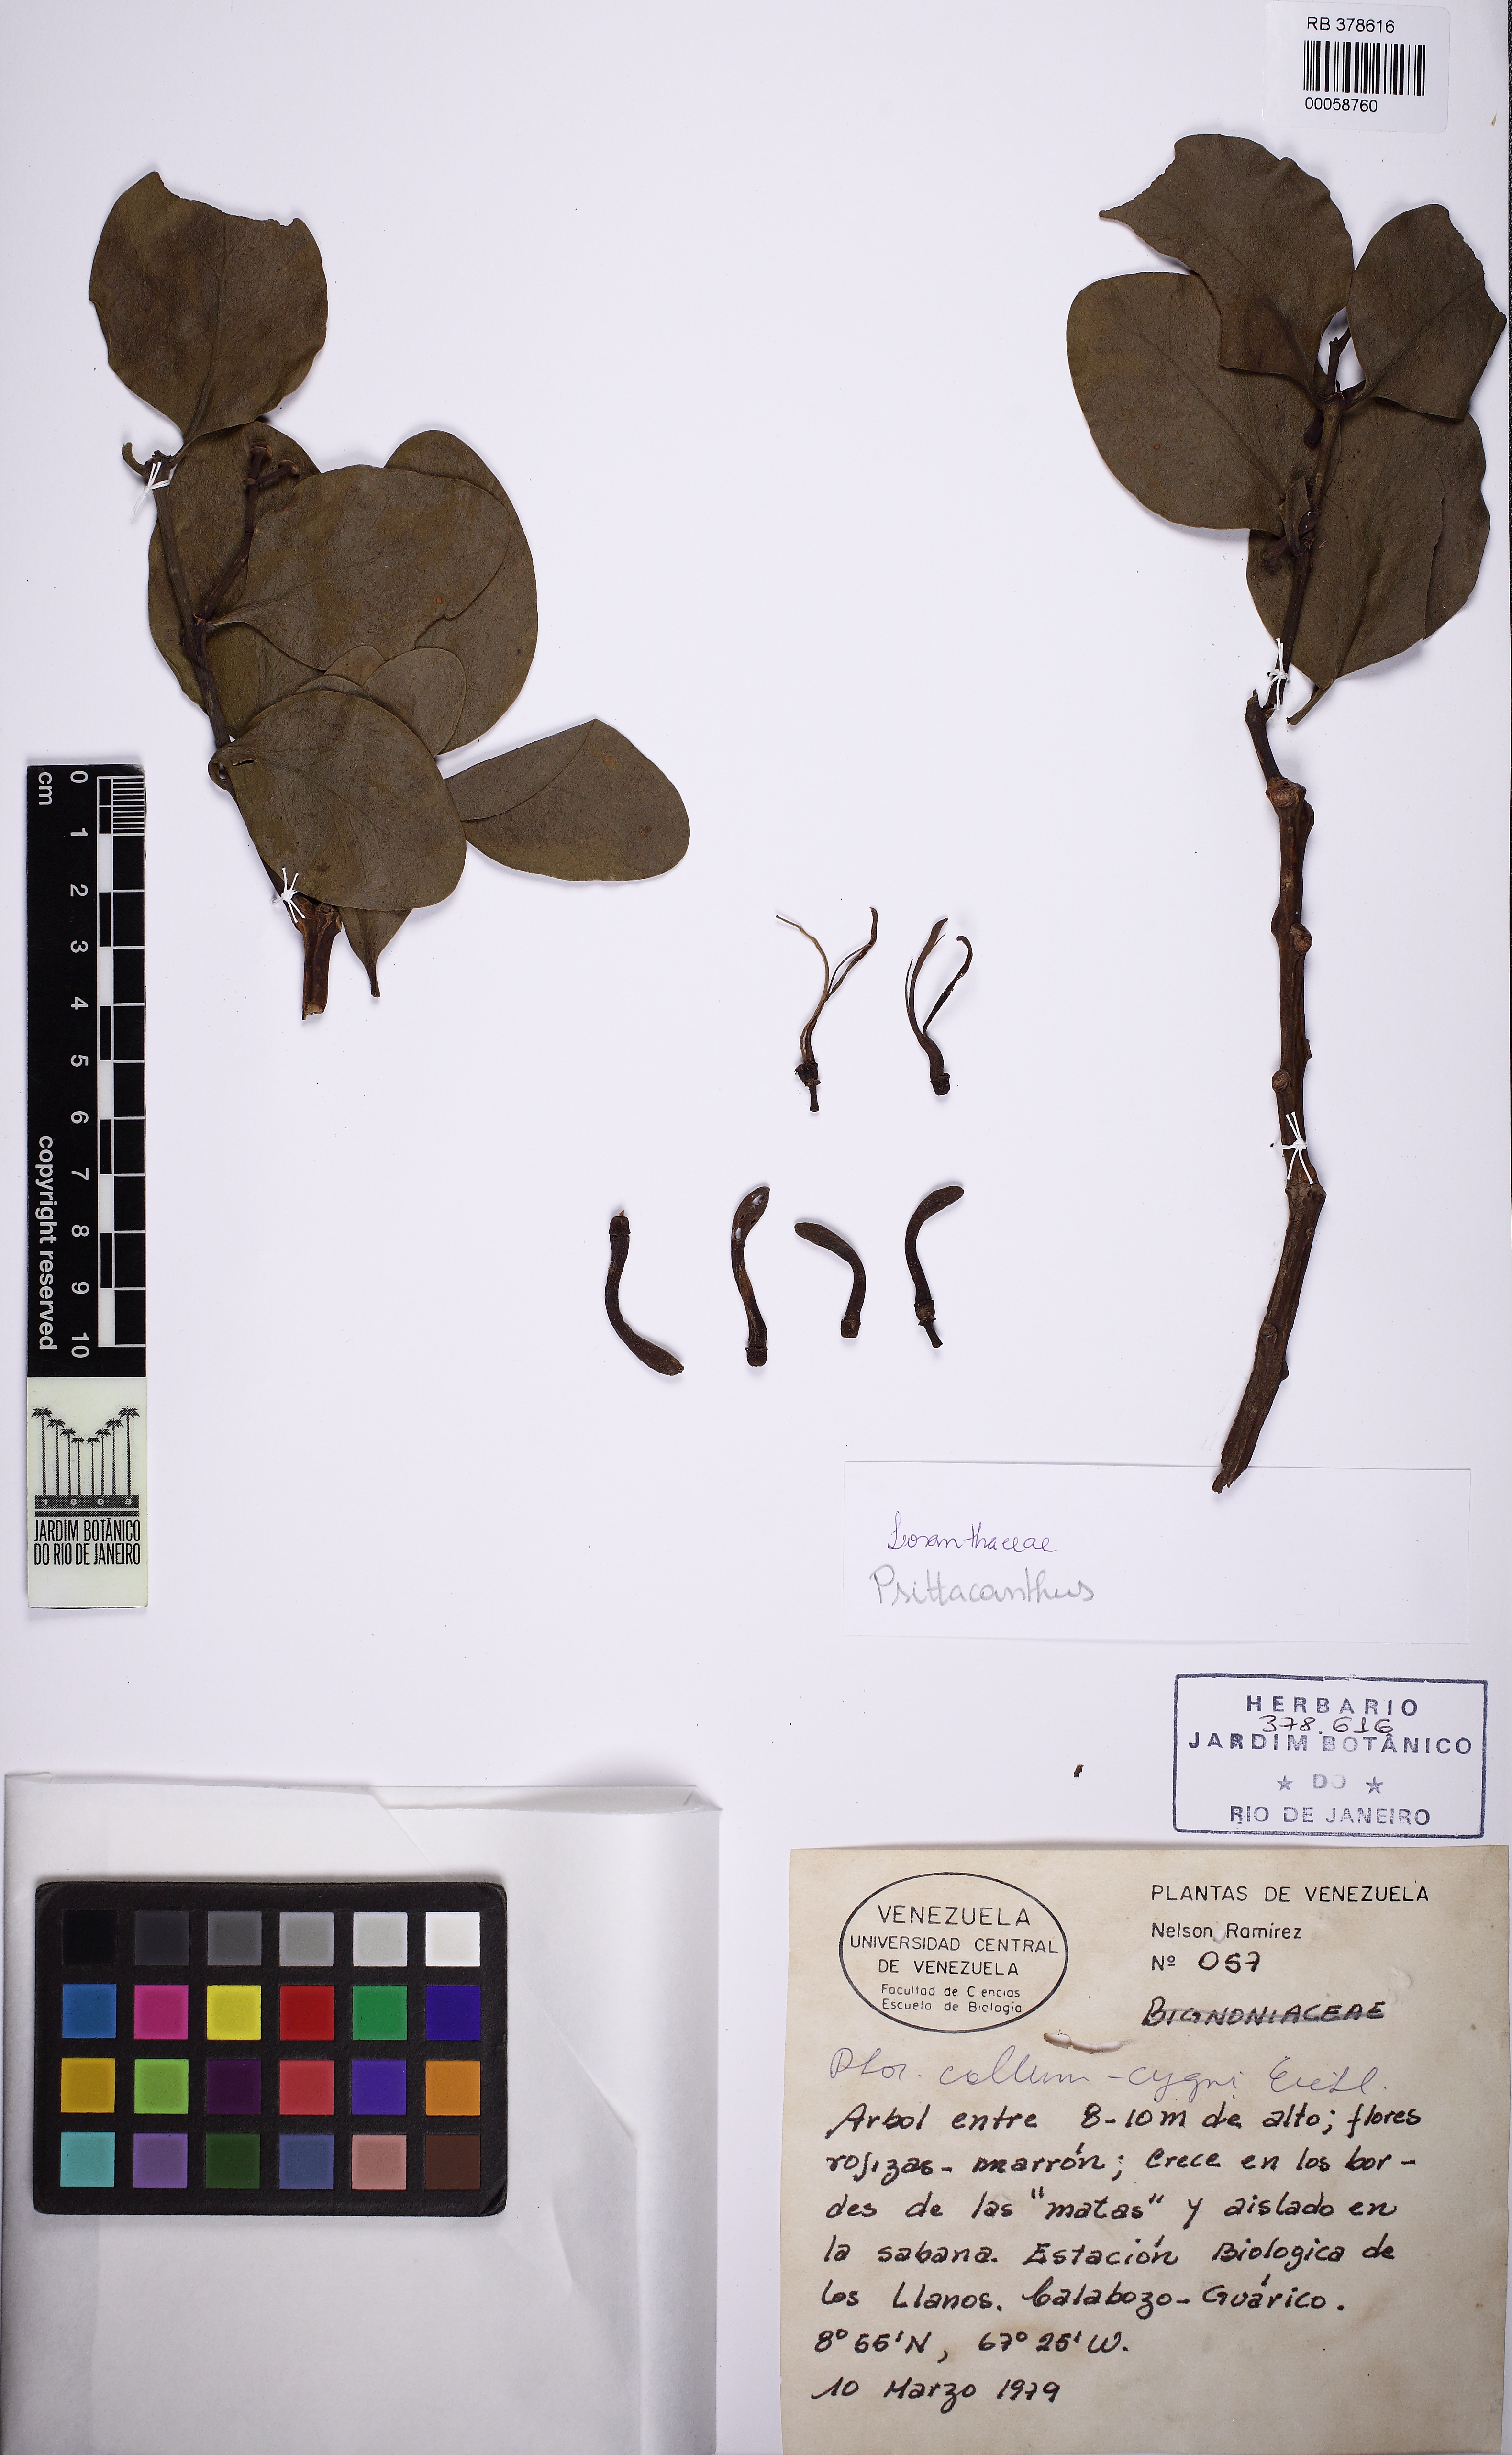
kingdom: Plantae
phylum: Tracheophyta
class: Magnoliopsida
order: Santalales
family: Loranthaceae
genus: Psittacanthus
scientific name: Psittacanthus
